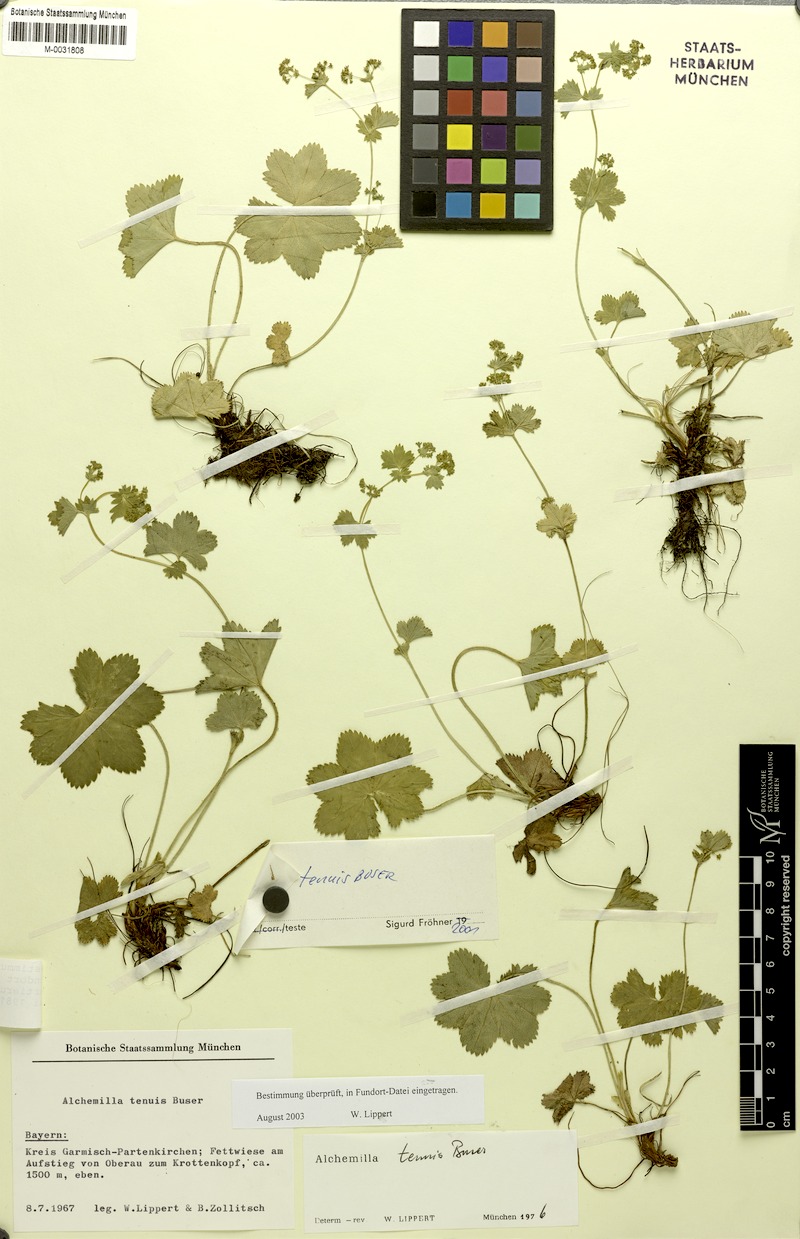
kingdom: Plantae
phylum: Tracheophyta
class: Magnoliopsida
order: Rosales
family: Rosaceae
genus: Alchemilla
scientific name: Alchemilla tenuis
